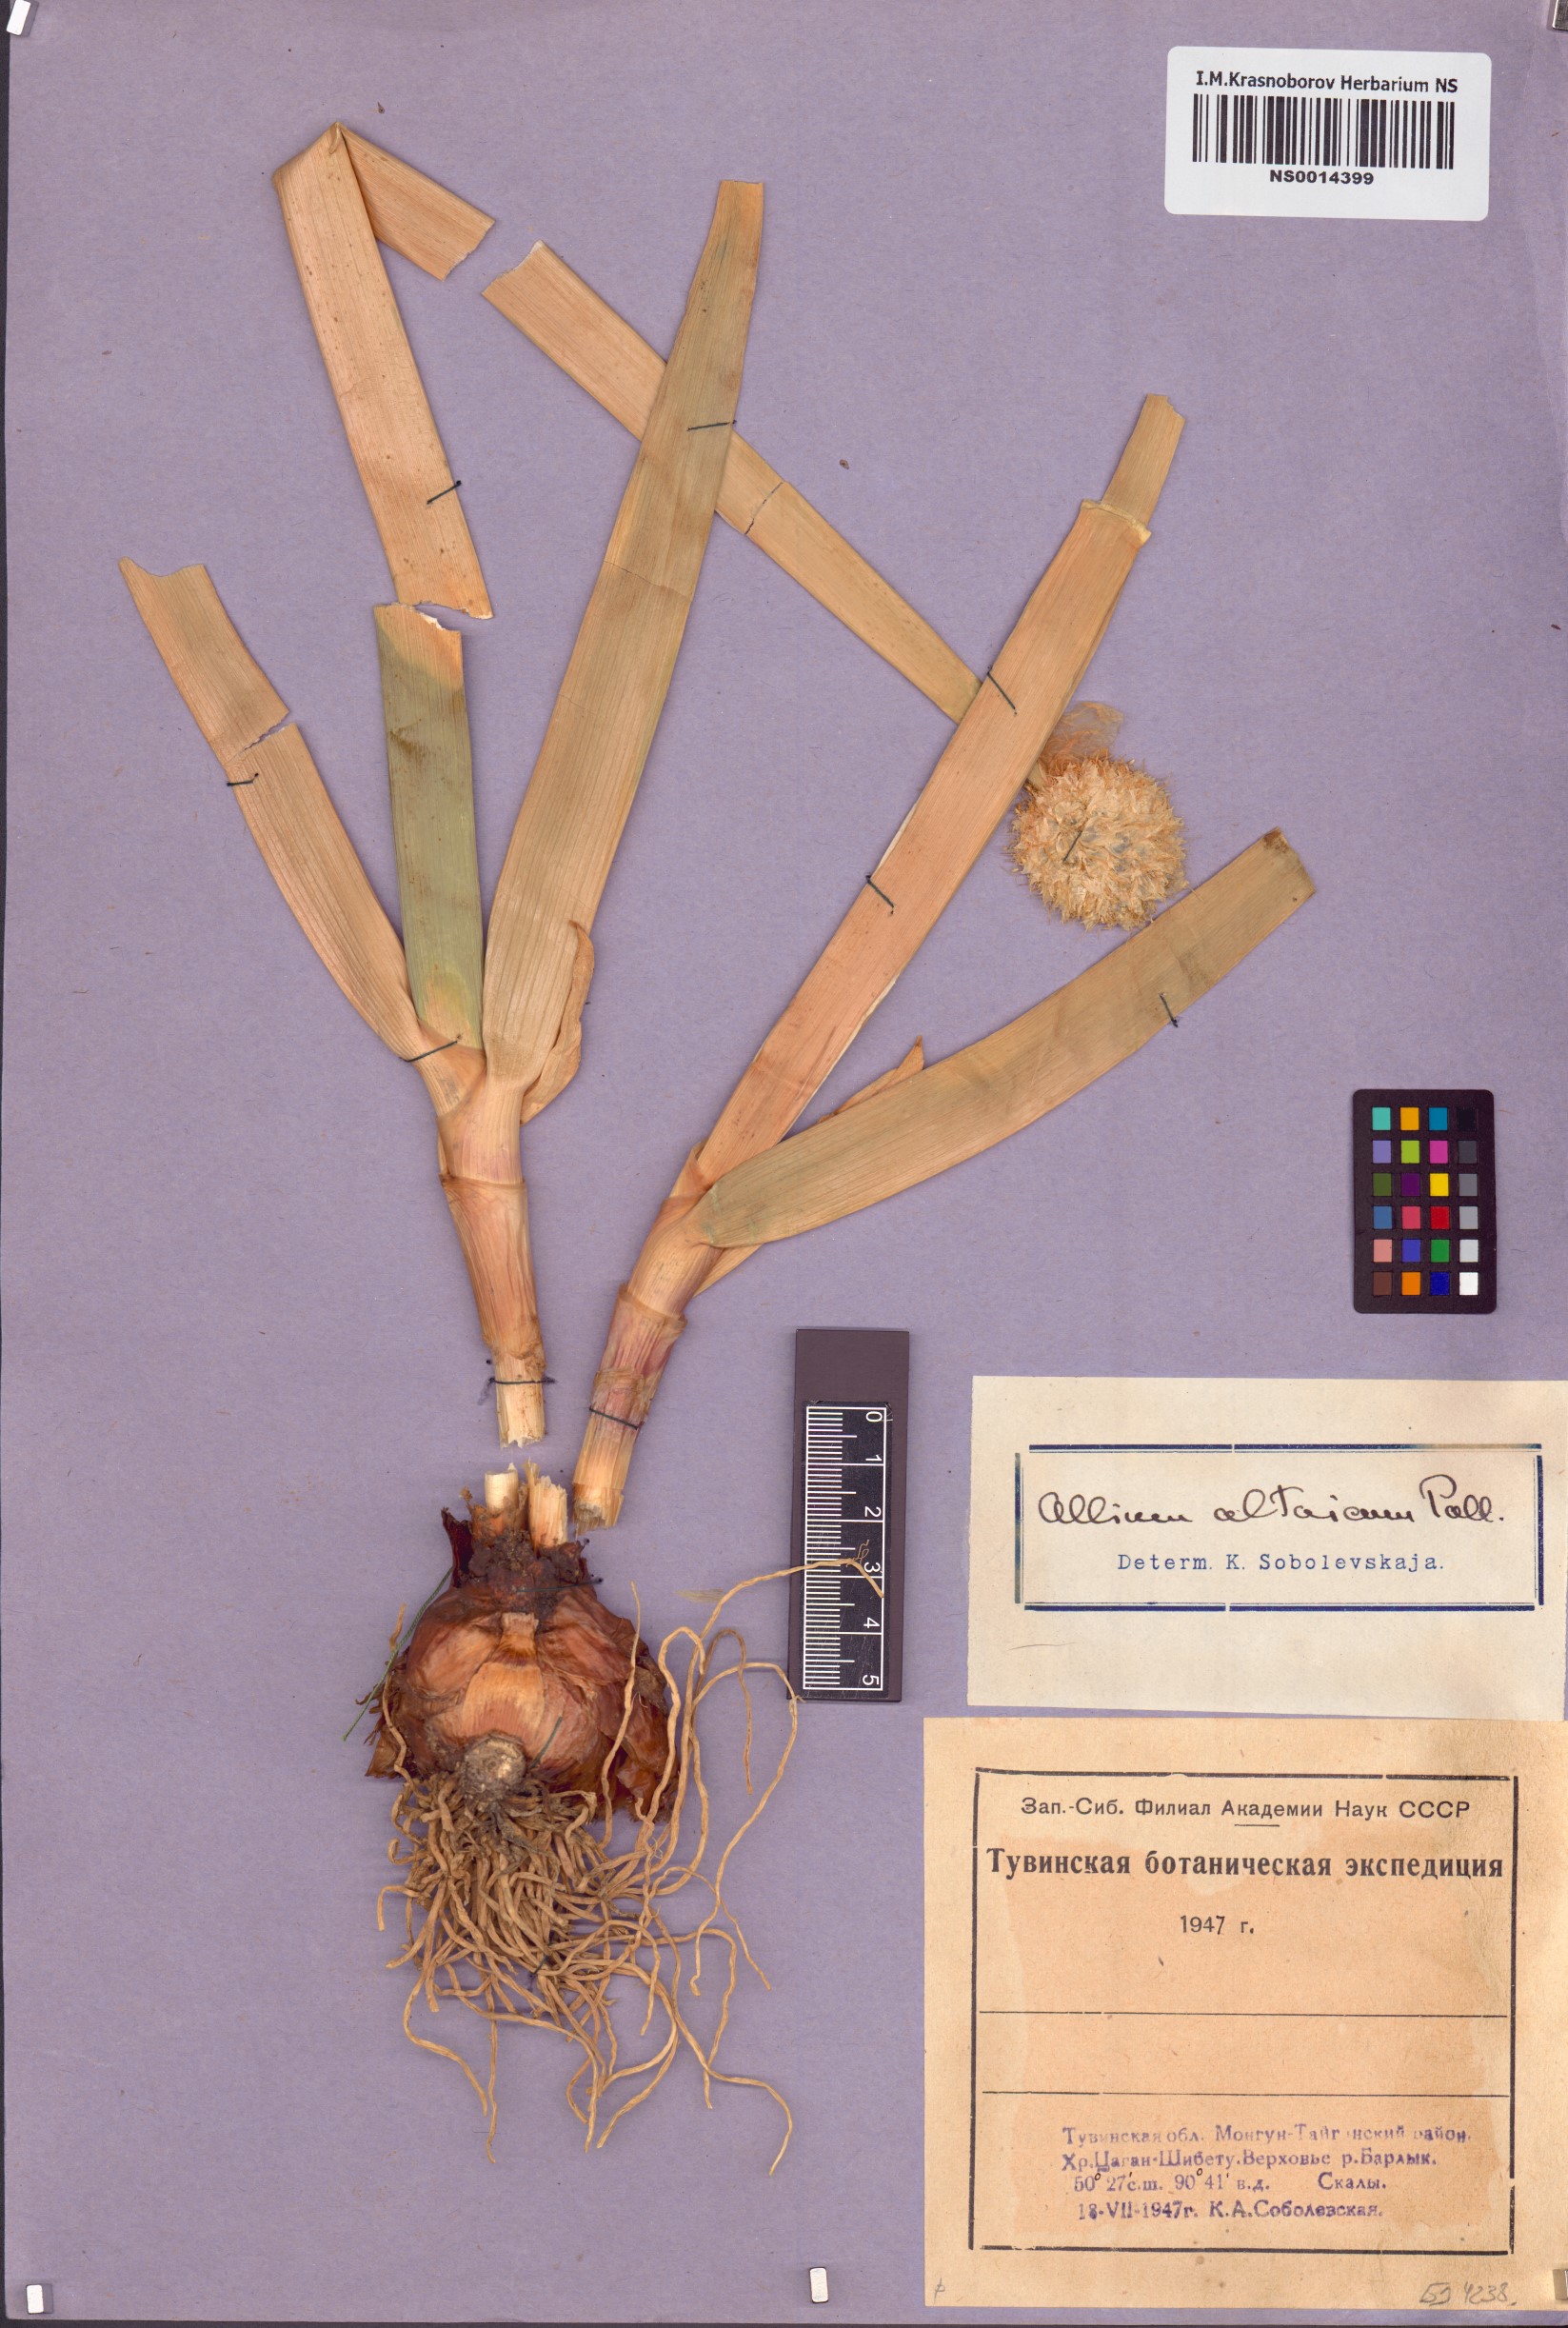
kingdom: Plantae
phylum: Tracheophyta
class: Liliopsida
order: Asparagales
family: Amaryllidaceae
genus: Allium
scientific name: Allium altaicum
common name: Altai onion
